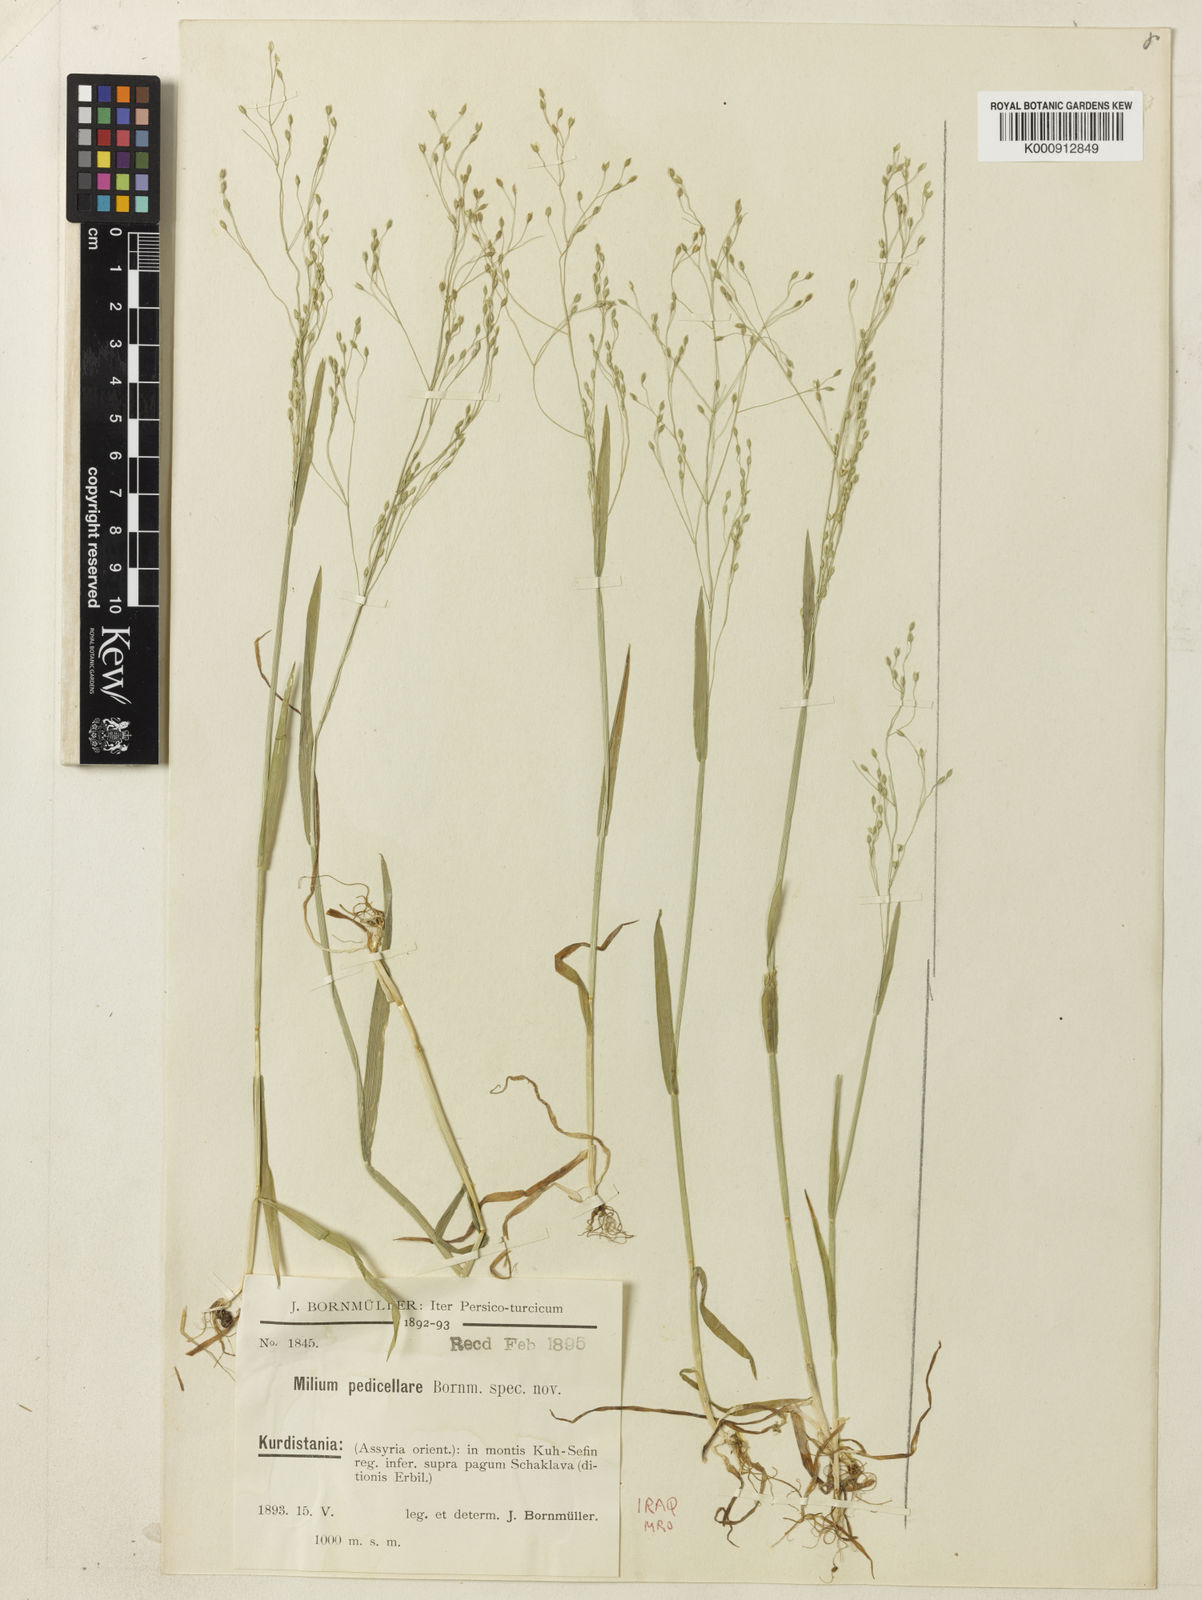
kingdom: Plantae
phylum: Tracheophyta
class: Liliopsida
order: Poales
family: Poaceae
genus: Milium
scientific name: Milium pedicellare
